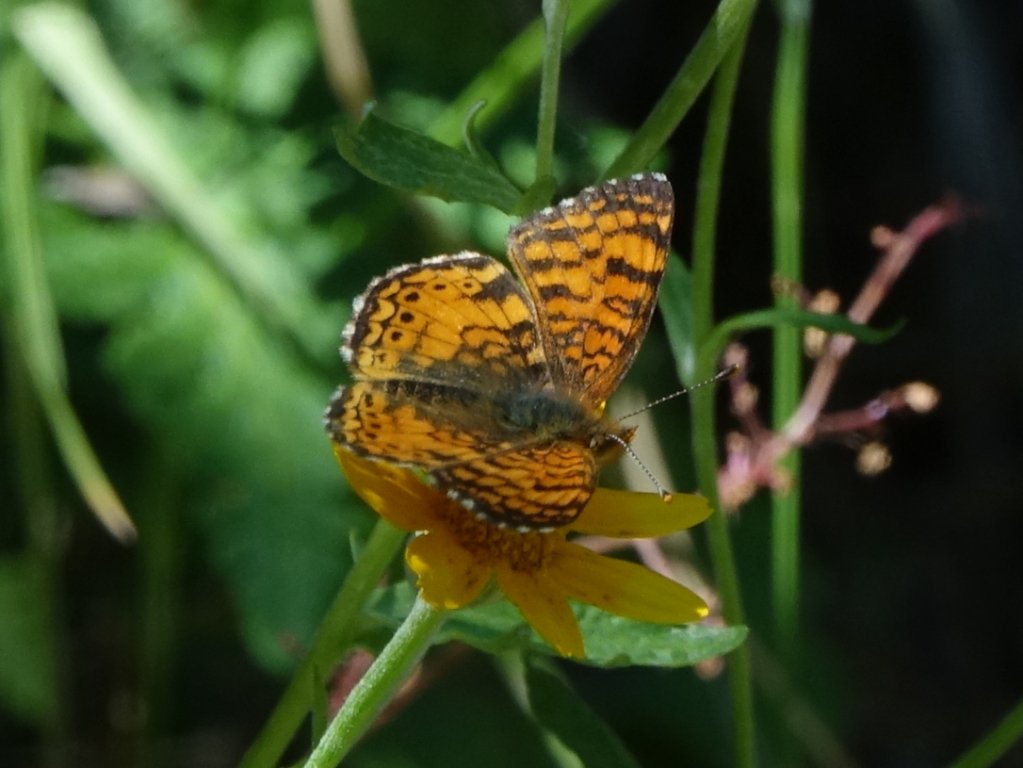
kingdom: Animalia
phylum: Arthropoda
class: Insecta
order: Lepidoptera
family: Nymphalidae
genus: Eresia
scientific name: Eresia aveyrona
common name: Mylitta Crescent
